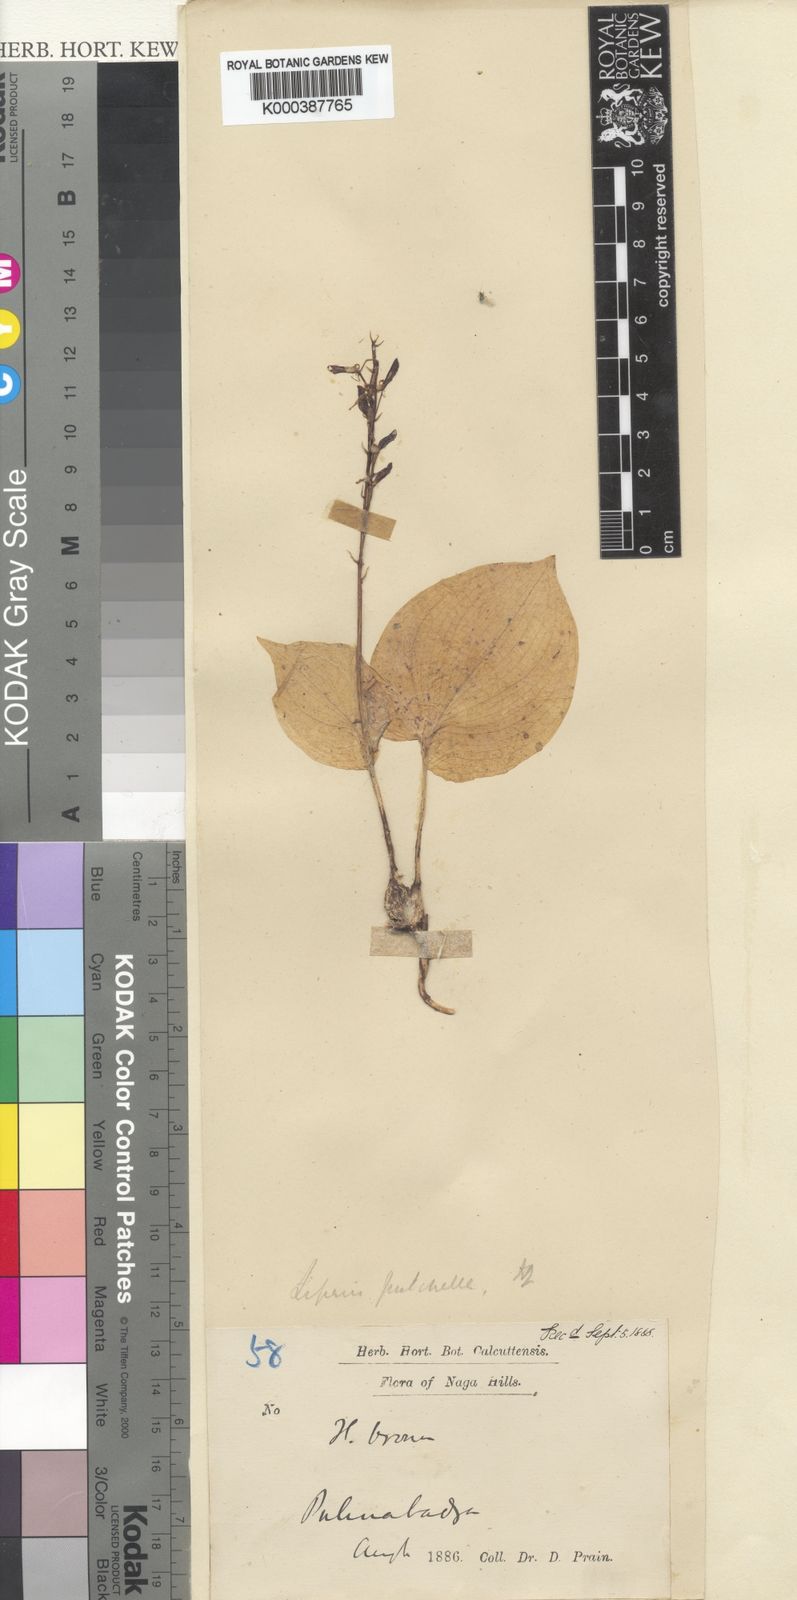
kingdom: Plantae
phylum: Tracheophyta
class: Liliopsida
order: Asparagales
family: Orchidaceae
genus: Liparis
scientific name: Liparis petiolata
